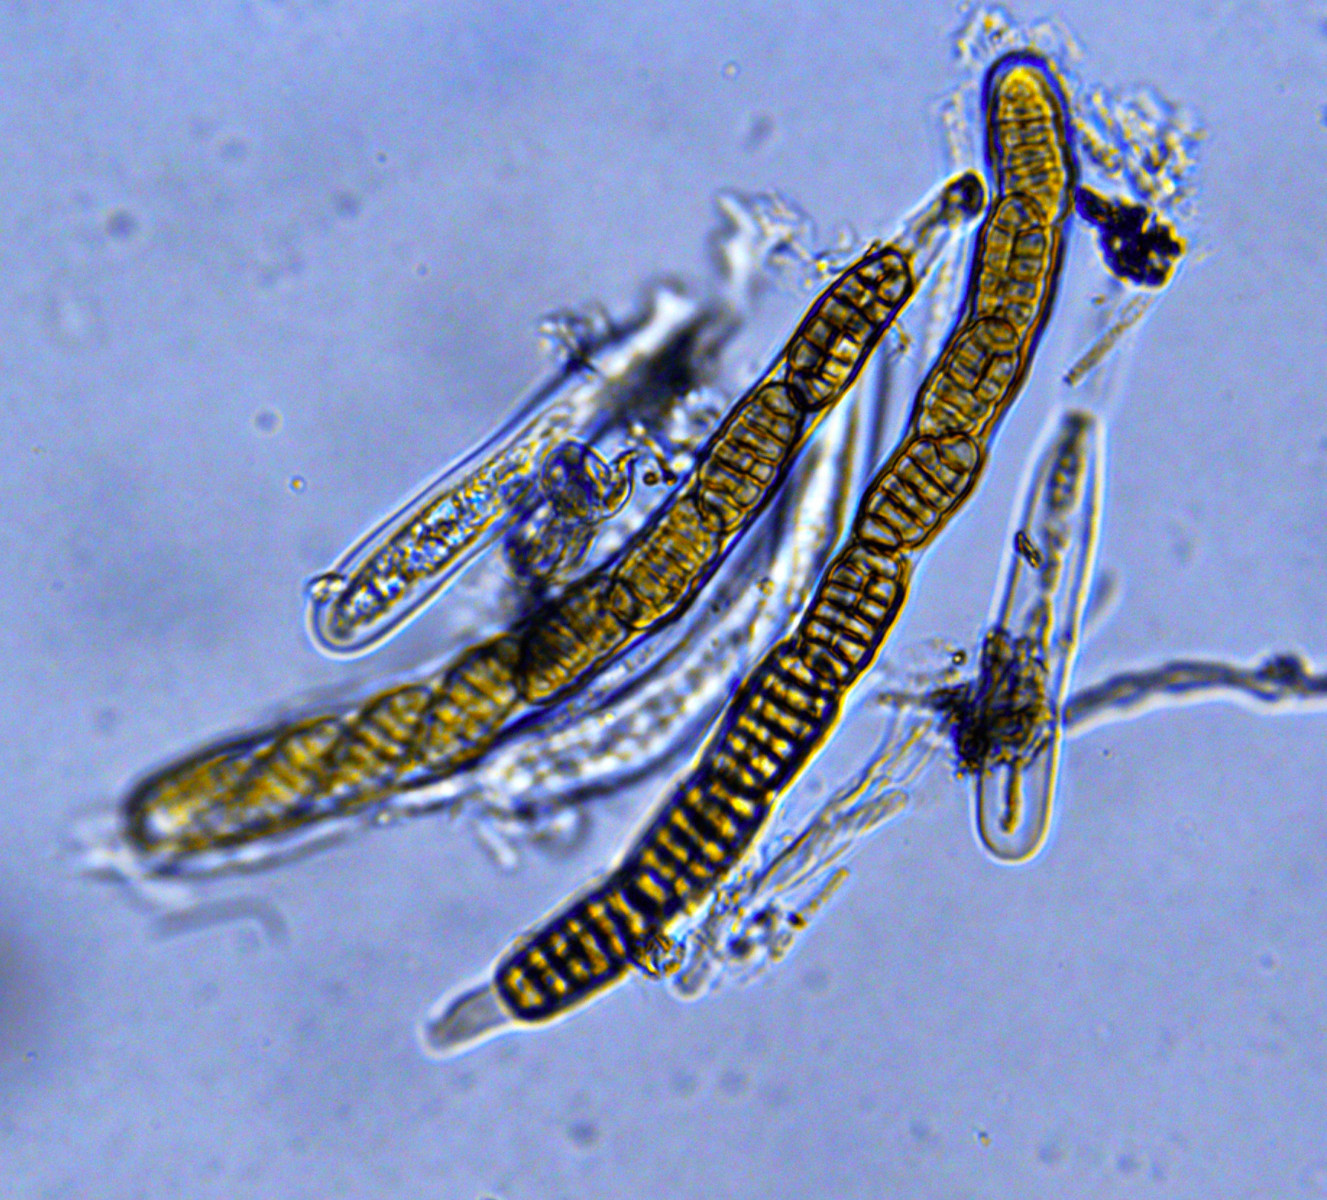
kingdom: Fungi
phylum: Ascomycota
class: Dothideomycetes
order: Pleosporales
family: Pleosporaceae
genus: Pleospora
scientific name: Pleospora phaeocomoides
